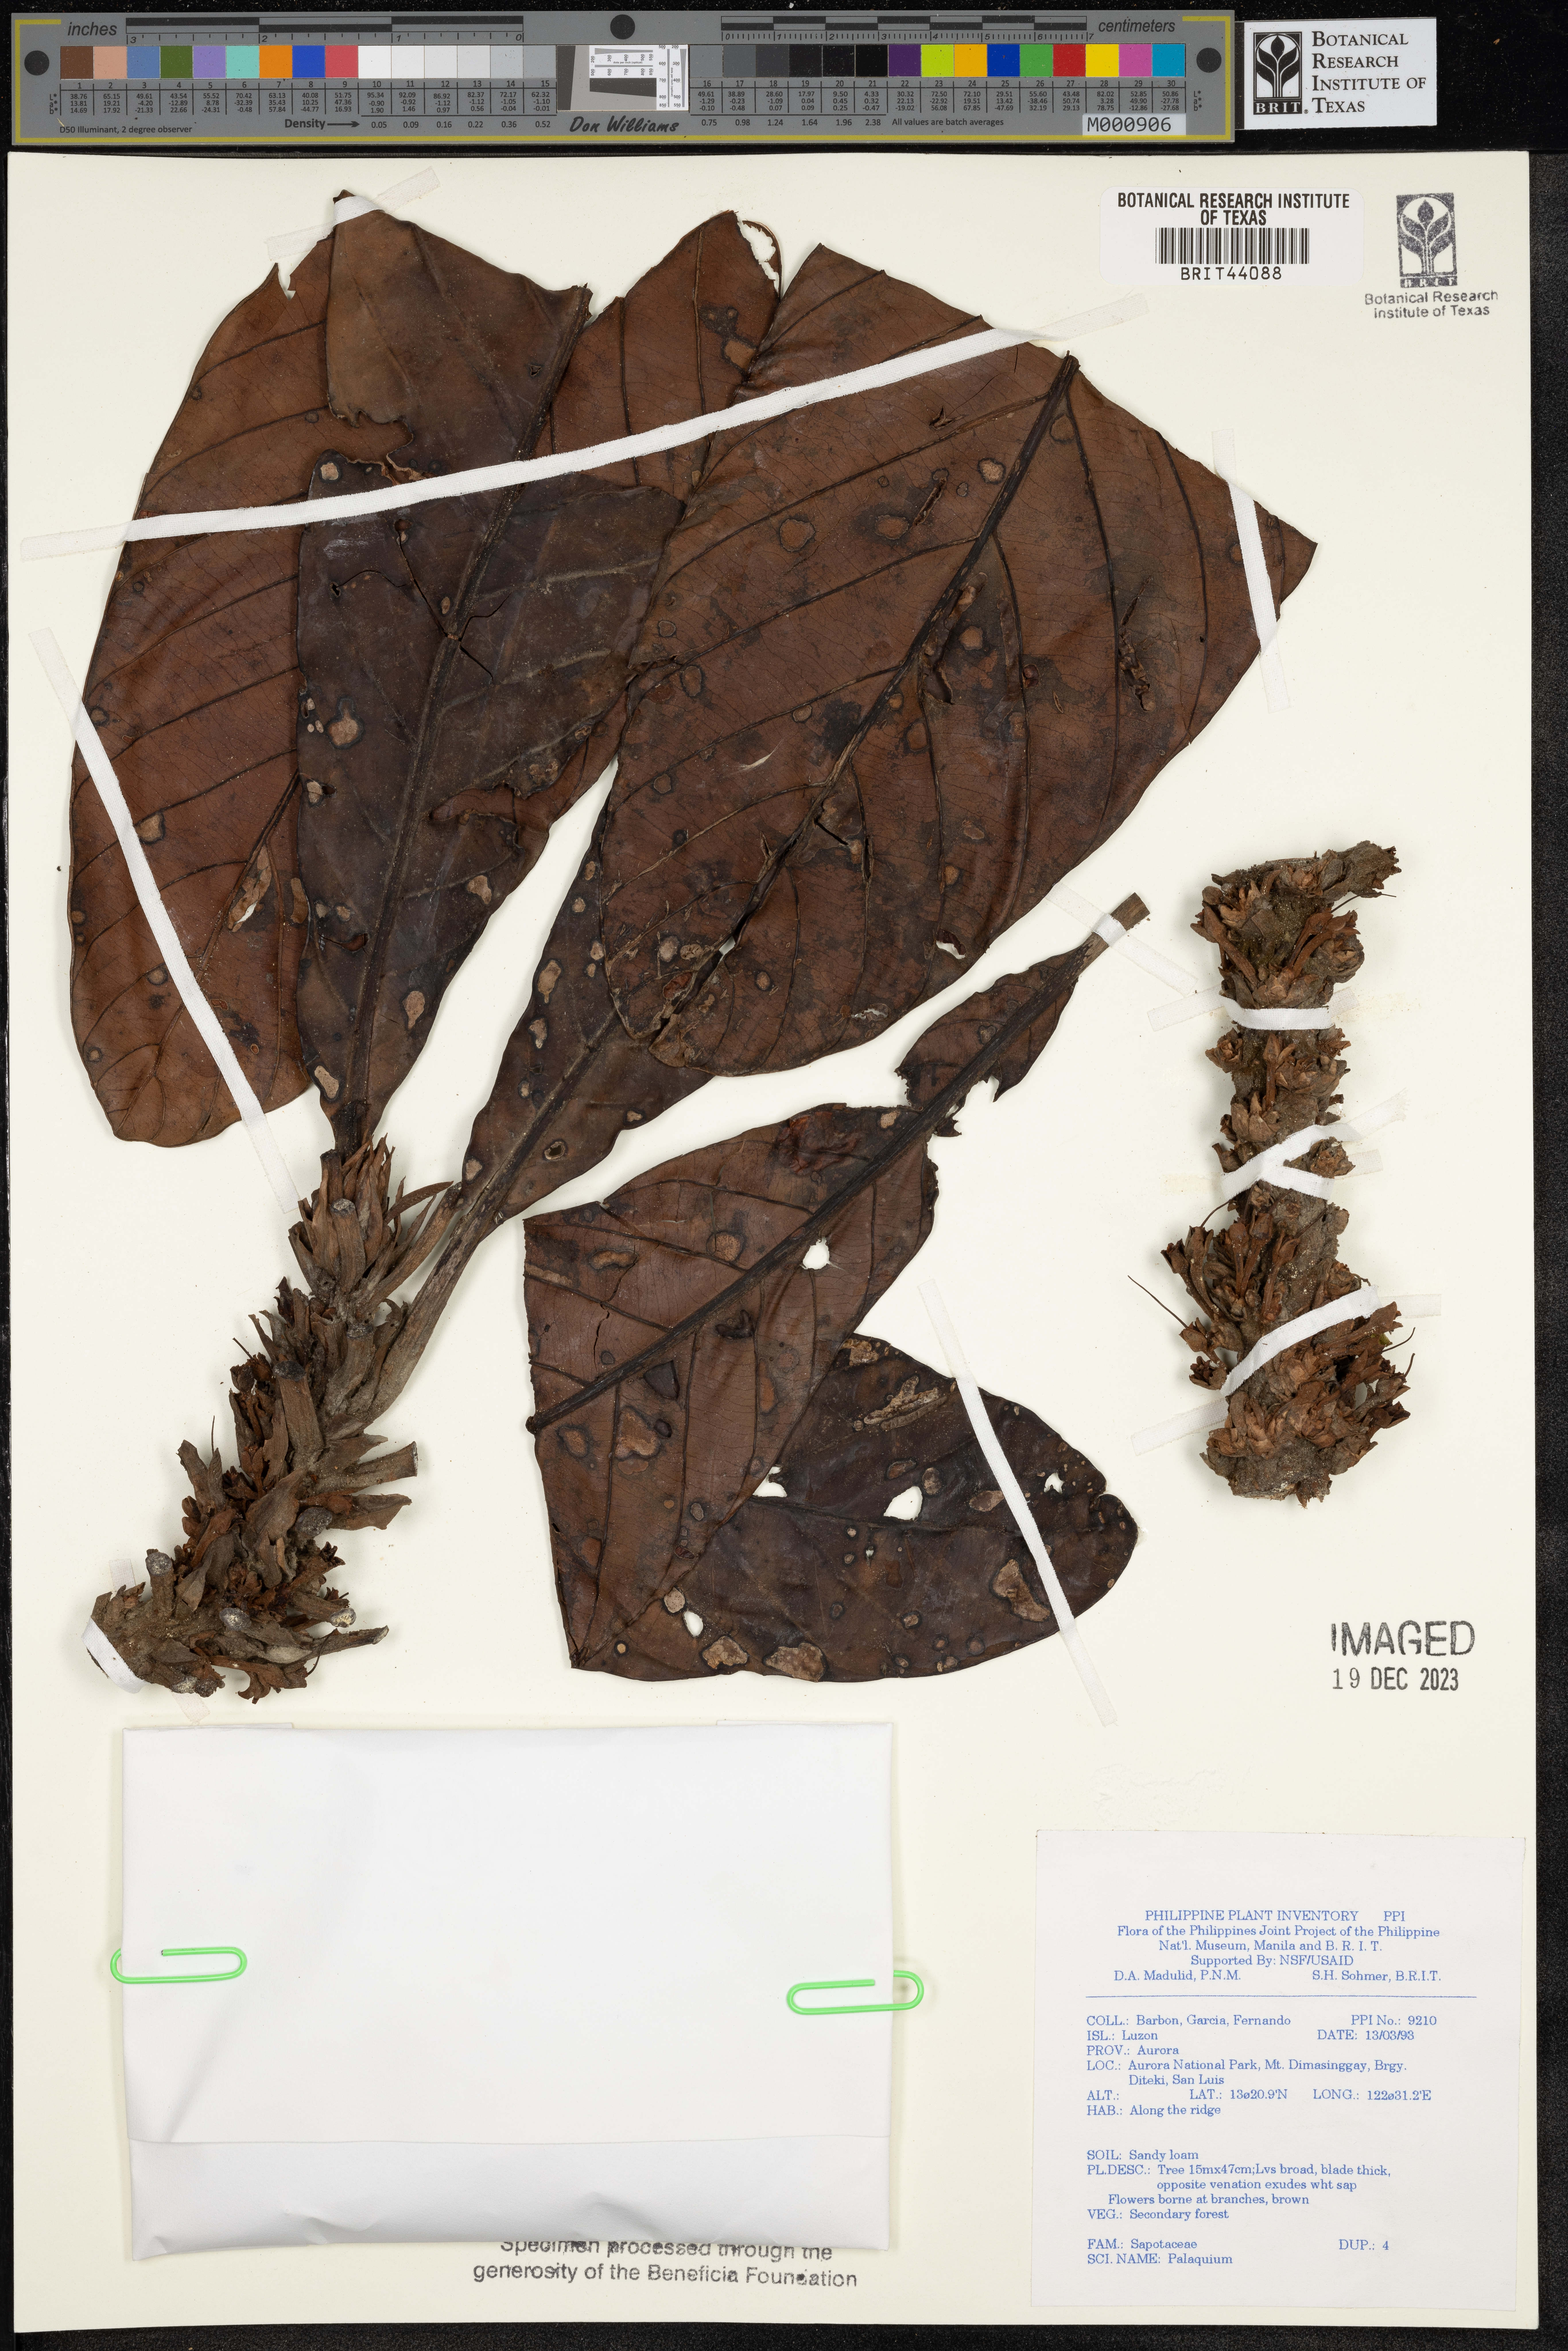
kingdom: Plantae
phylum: Tracheophyta
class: Magnoliopsida
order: Ericales
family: Sapotaceae
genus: Palaquium
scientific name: Palaquium
